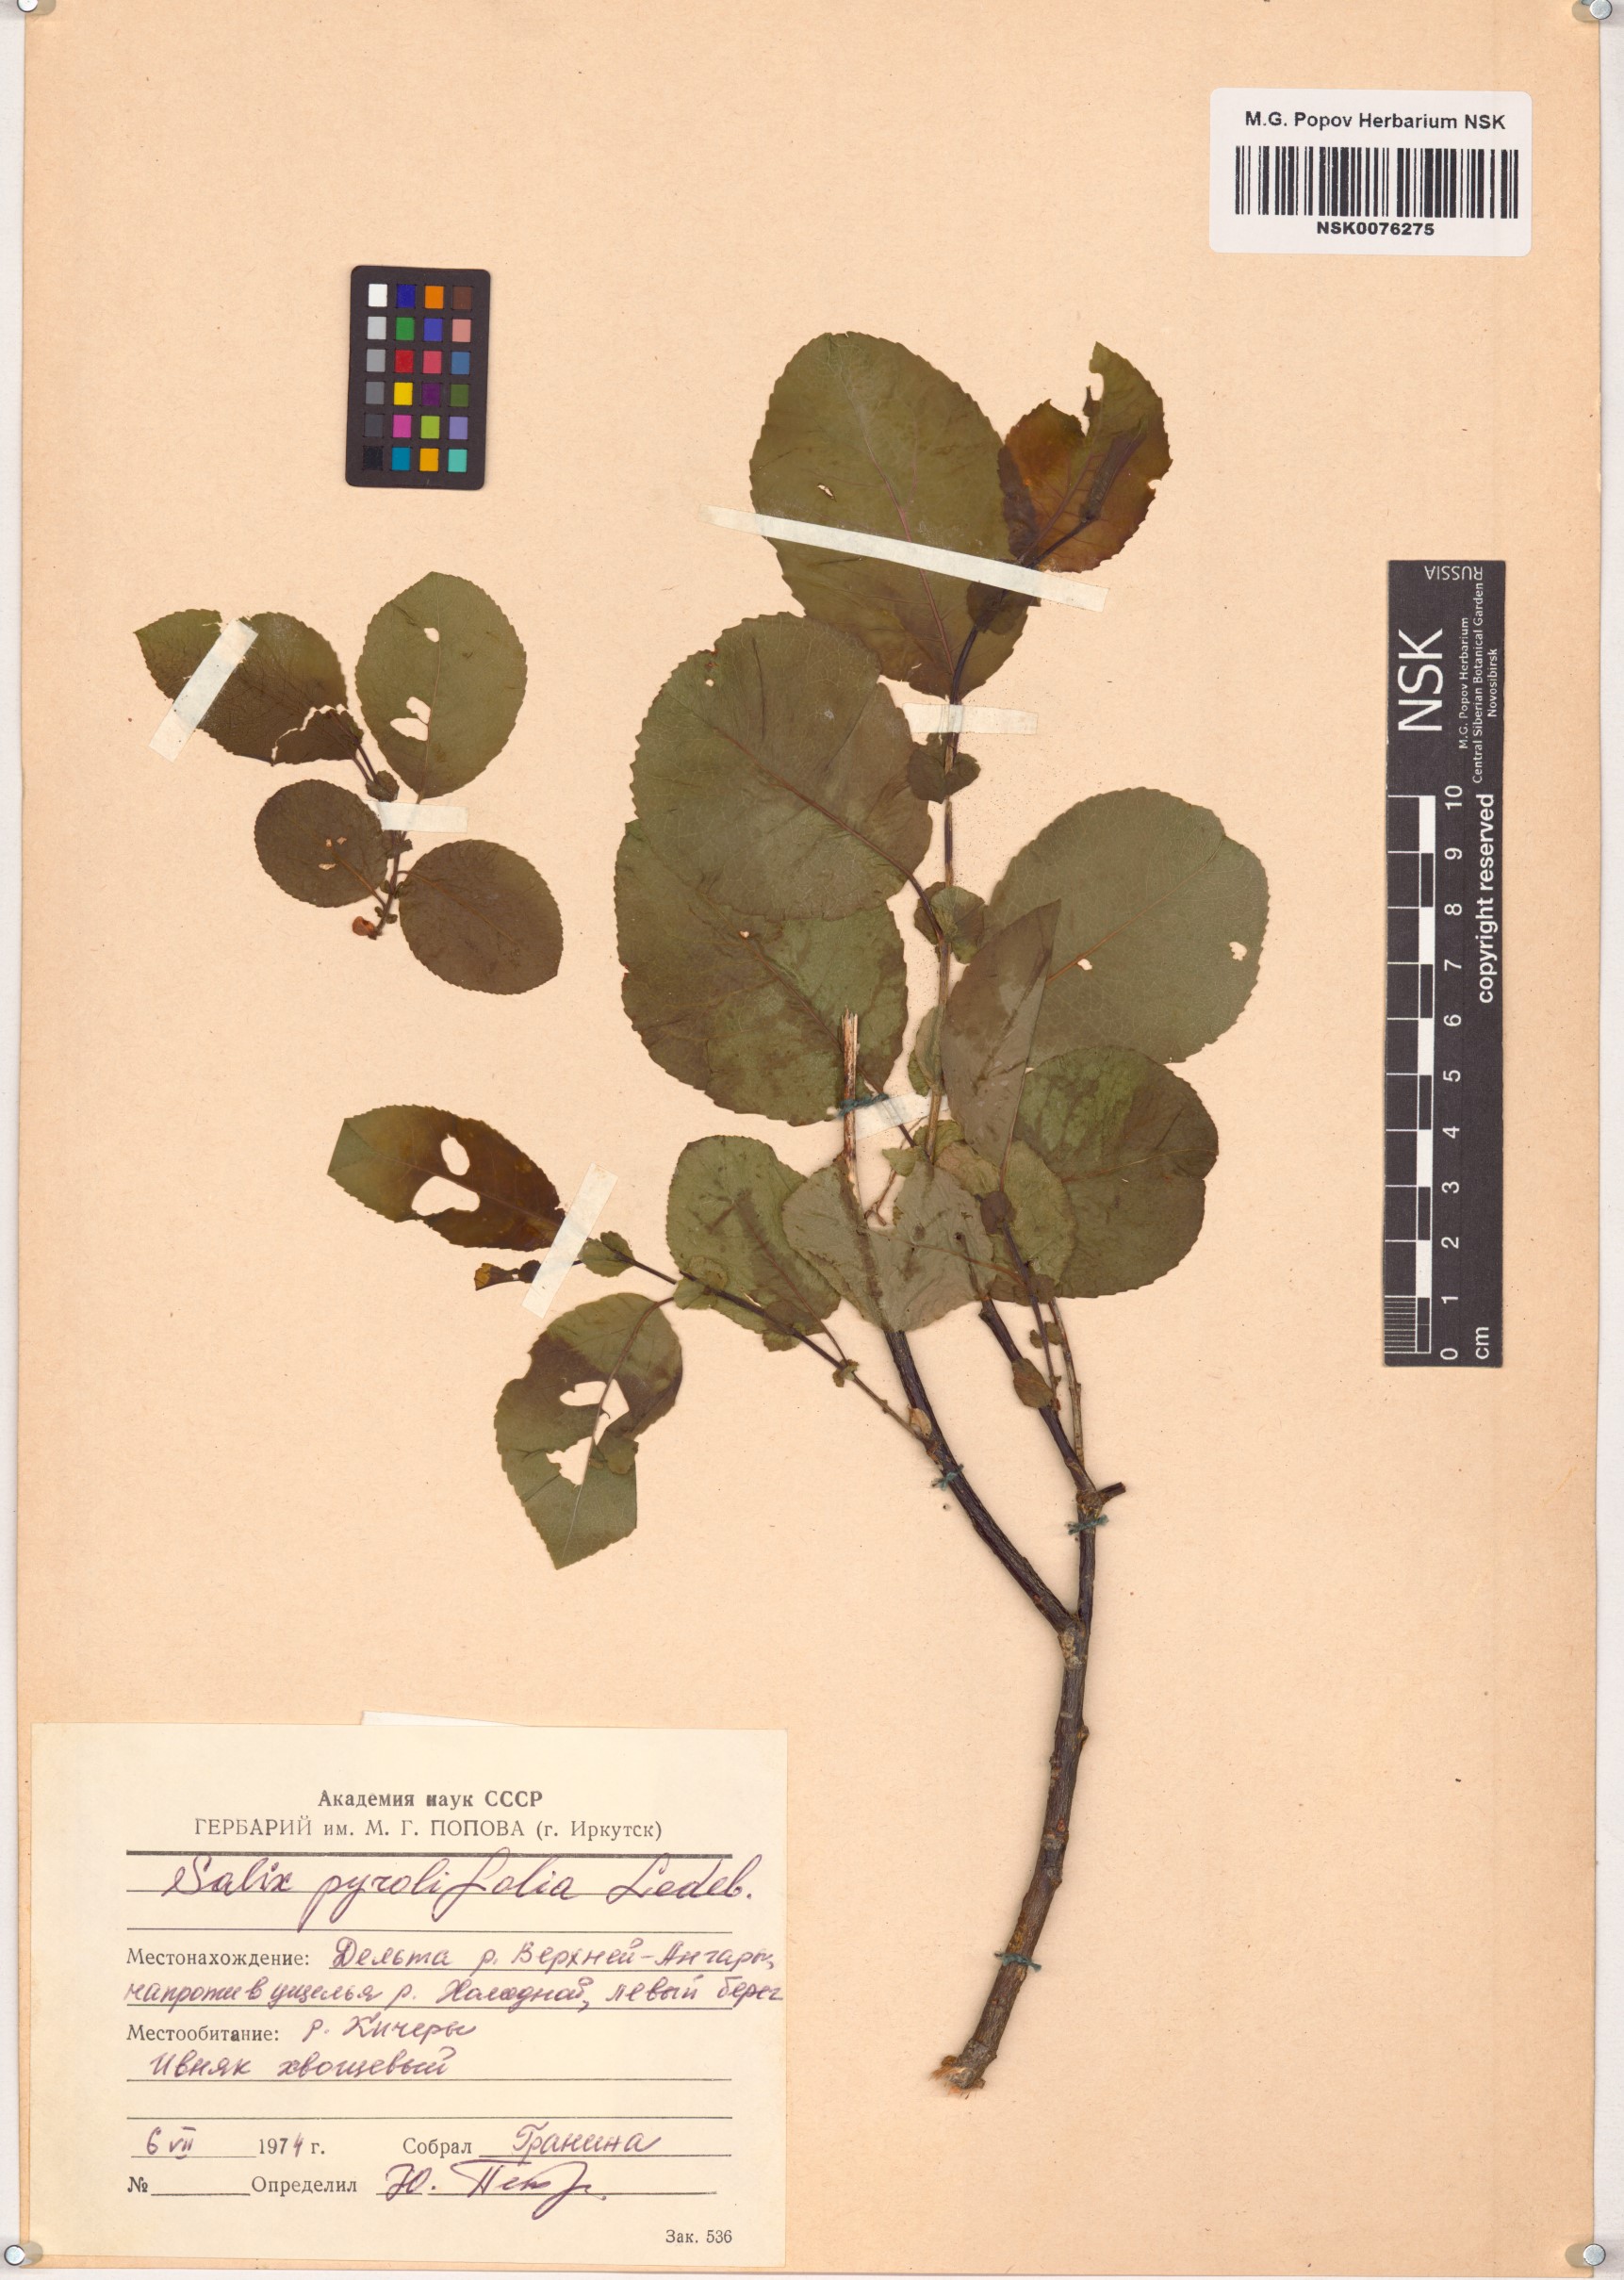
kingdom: Plantae
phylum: Tracheophyta
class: Magnoliopsida
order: Malpighiales
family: Salicaceae
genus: Salix
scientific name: Salix pyrolifolia
